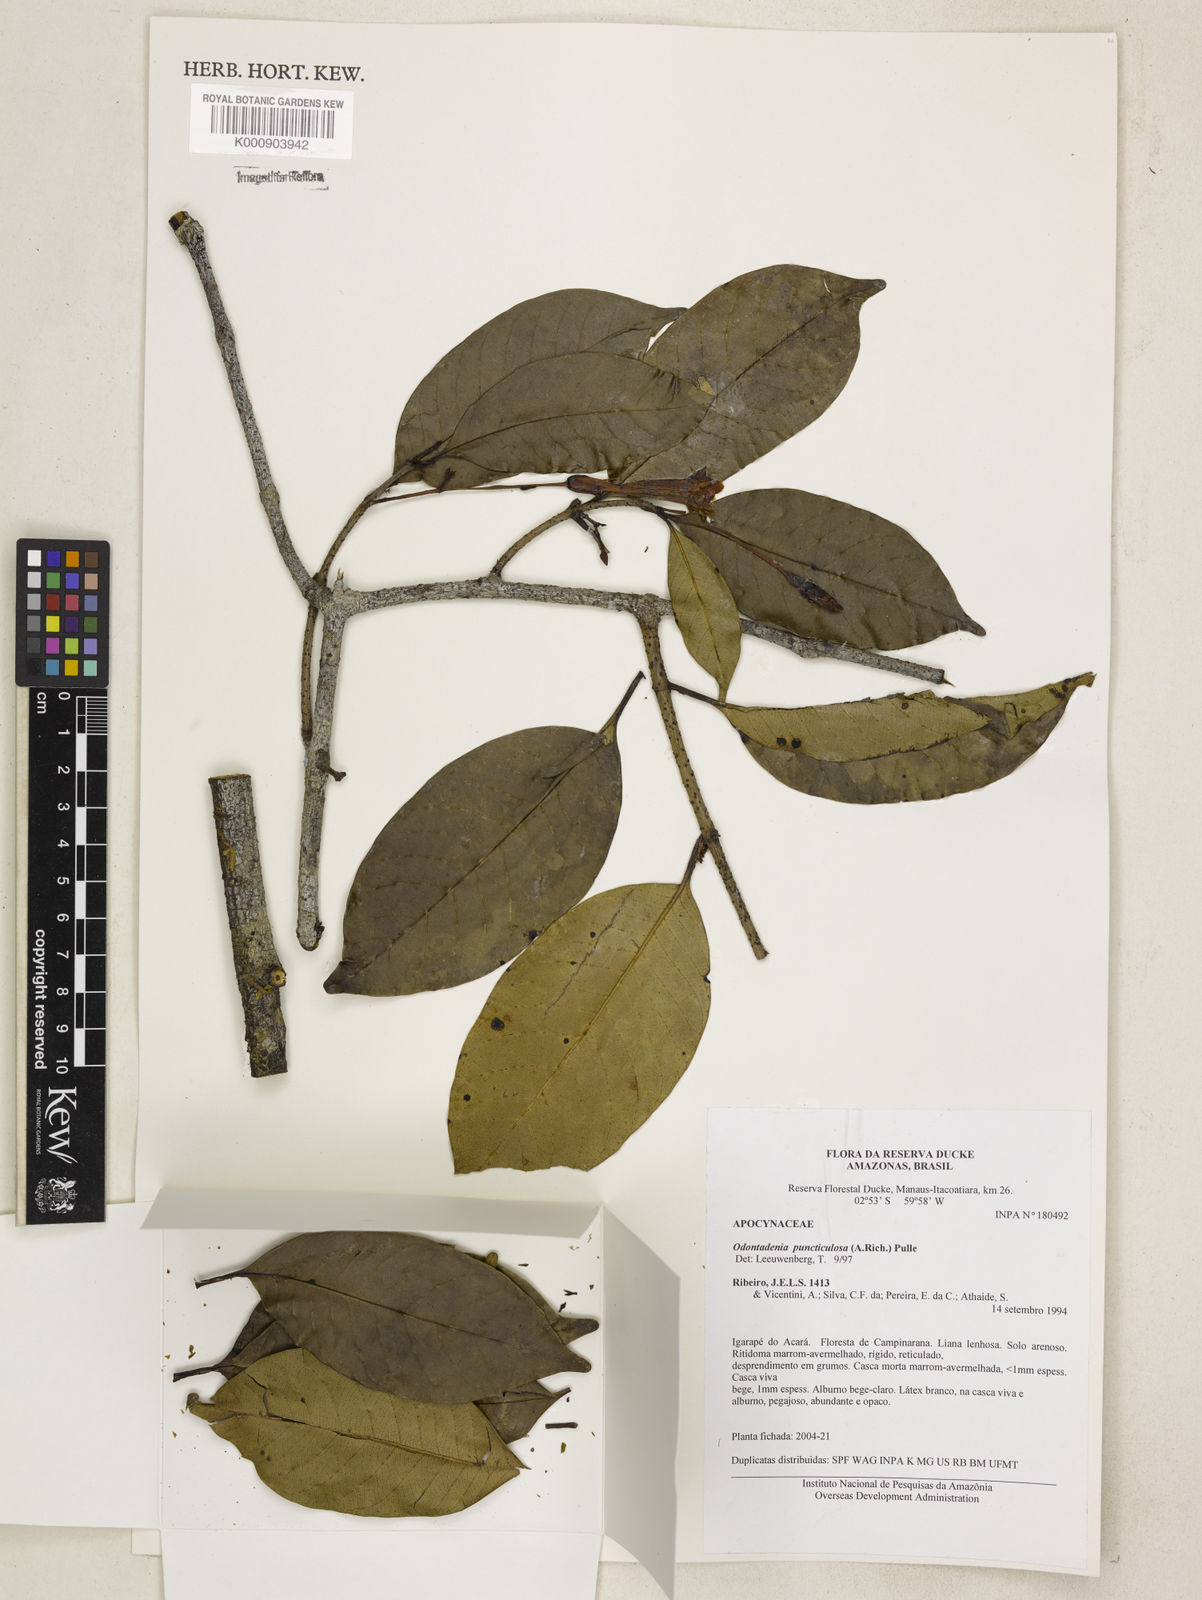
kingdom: Plantae
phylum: Tracheophyta
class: Magnoliopsida
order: Gentianales
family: Apocynaceae
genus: Odontadenia
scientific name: Odontadenia puncticulosa
